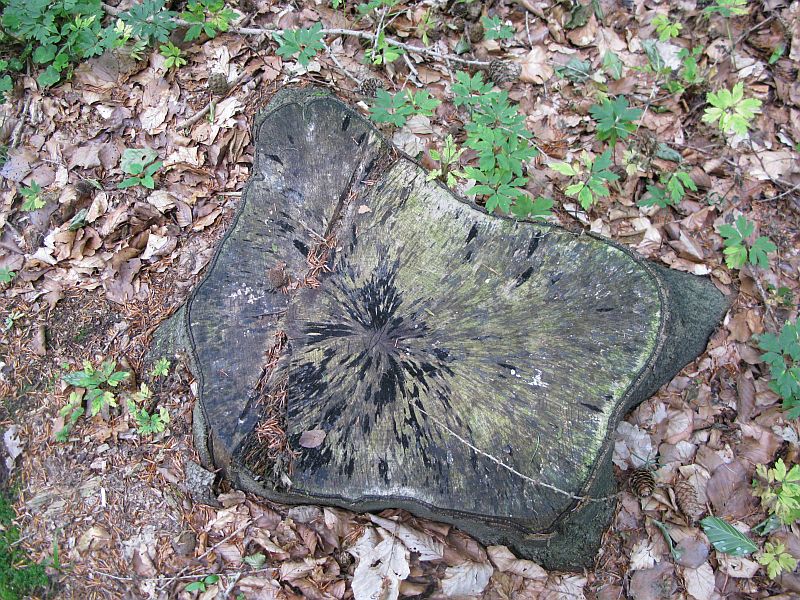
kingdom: Fungi
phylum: Ascomycota
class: Leotiomycetes
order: Helotiales
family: Helotiaceae
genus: Bispora
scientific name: Bispora pallescens
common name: måtte-snitskive
